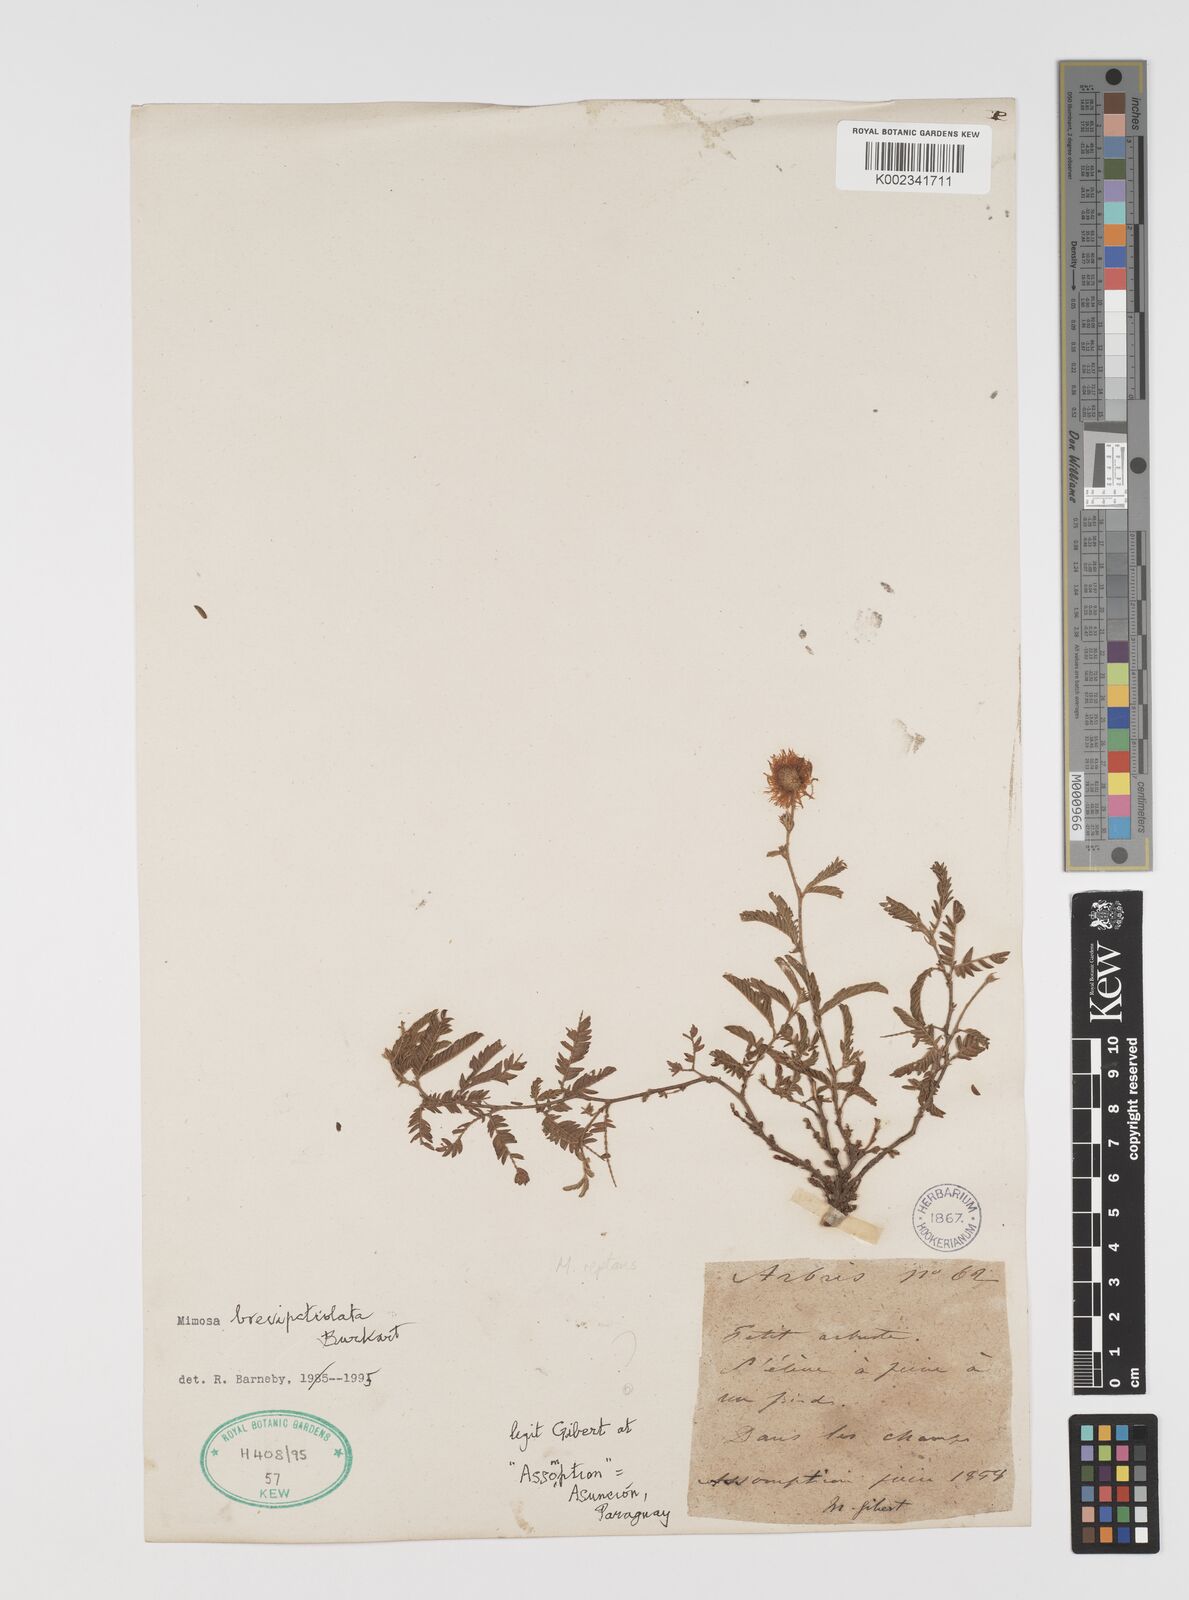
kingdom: Plantae
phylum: Tracheophyta
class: Magnoliopsida
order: Fabales
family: Fabaceae
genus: Mimosa
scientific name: Mimosa brevipetiolata
